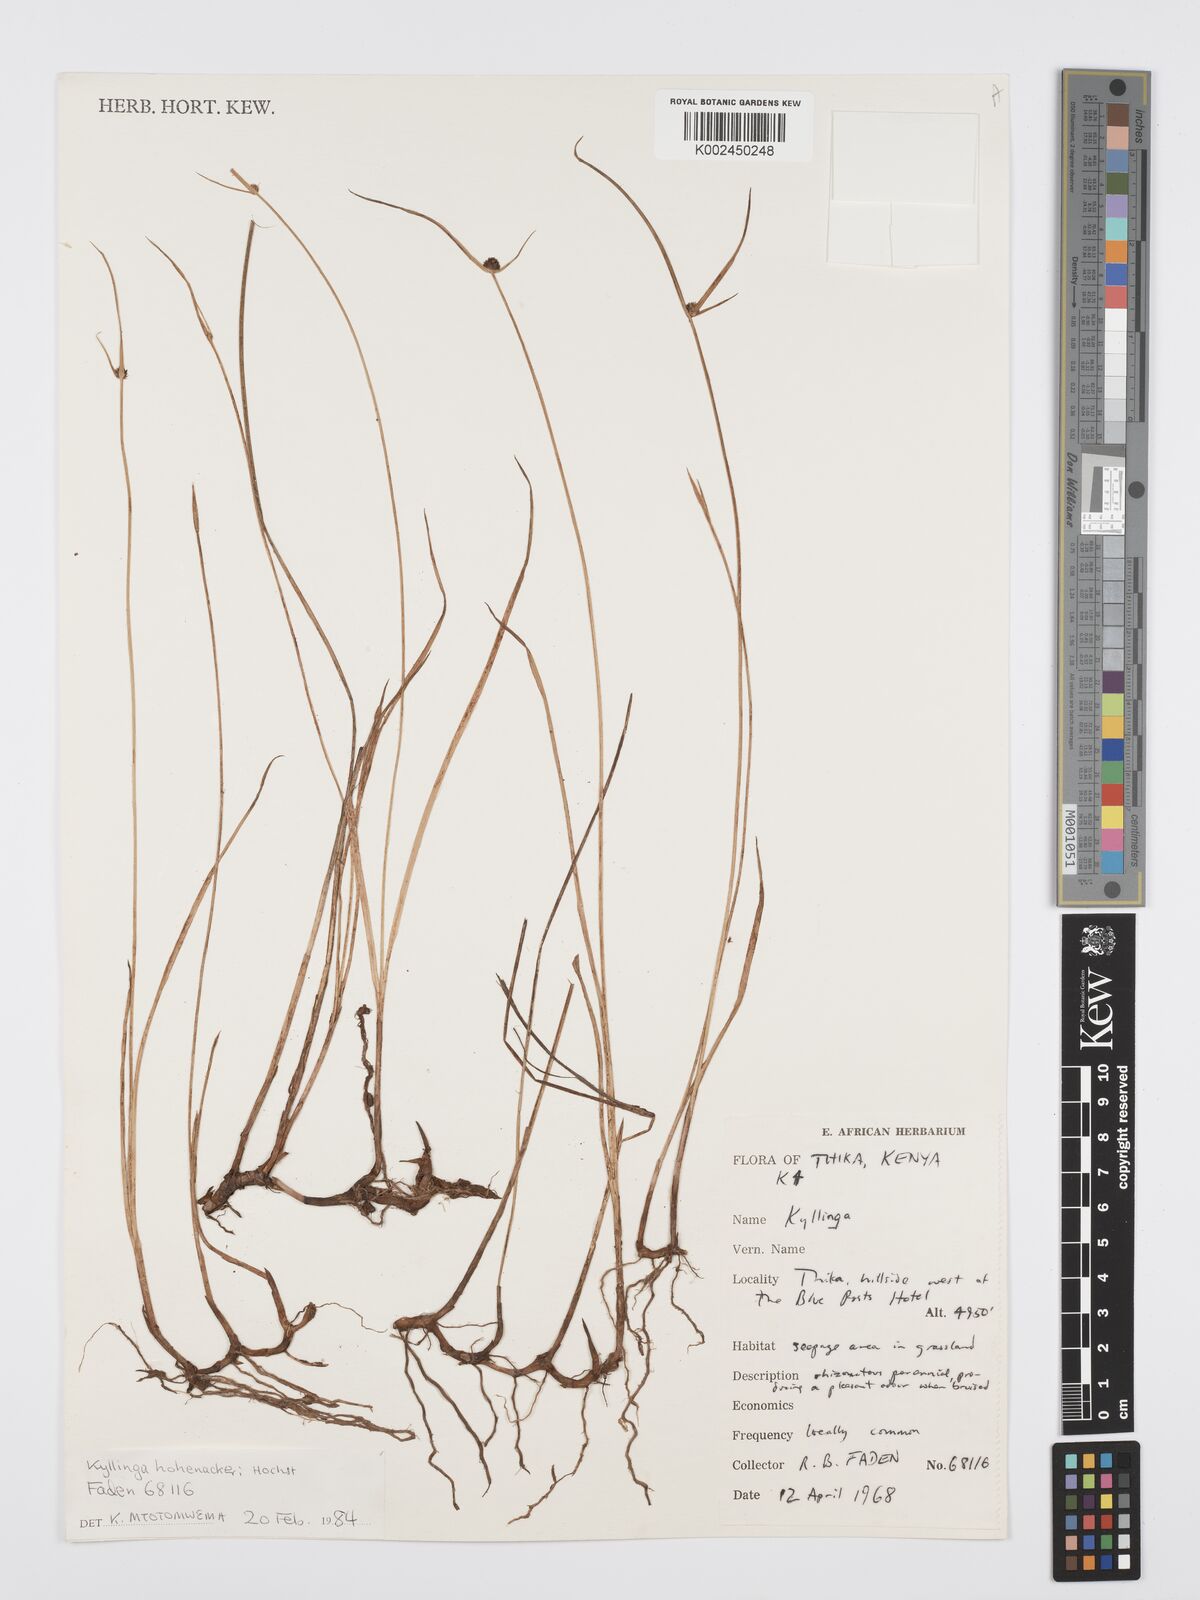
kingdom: Plantae
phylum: Tracheophyta
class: Liliopsida
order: Poales
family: Cyperaceae
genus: Cyperus
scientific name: Cyperus
